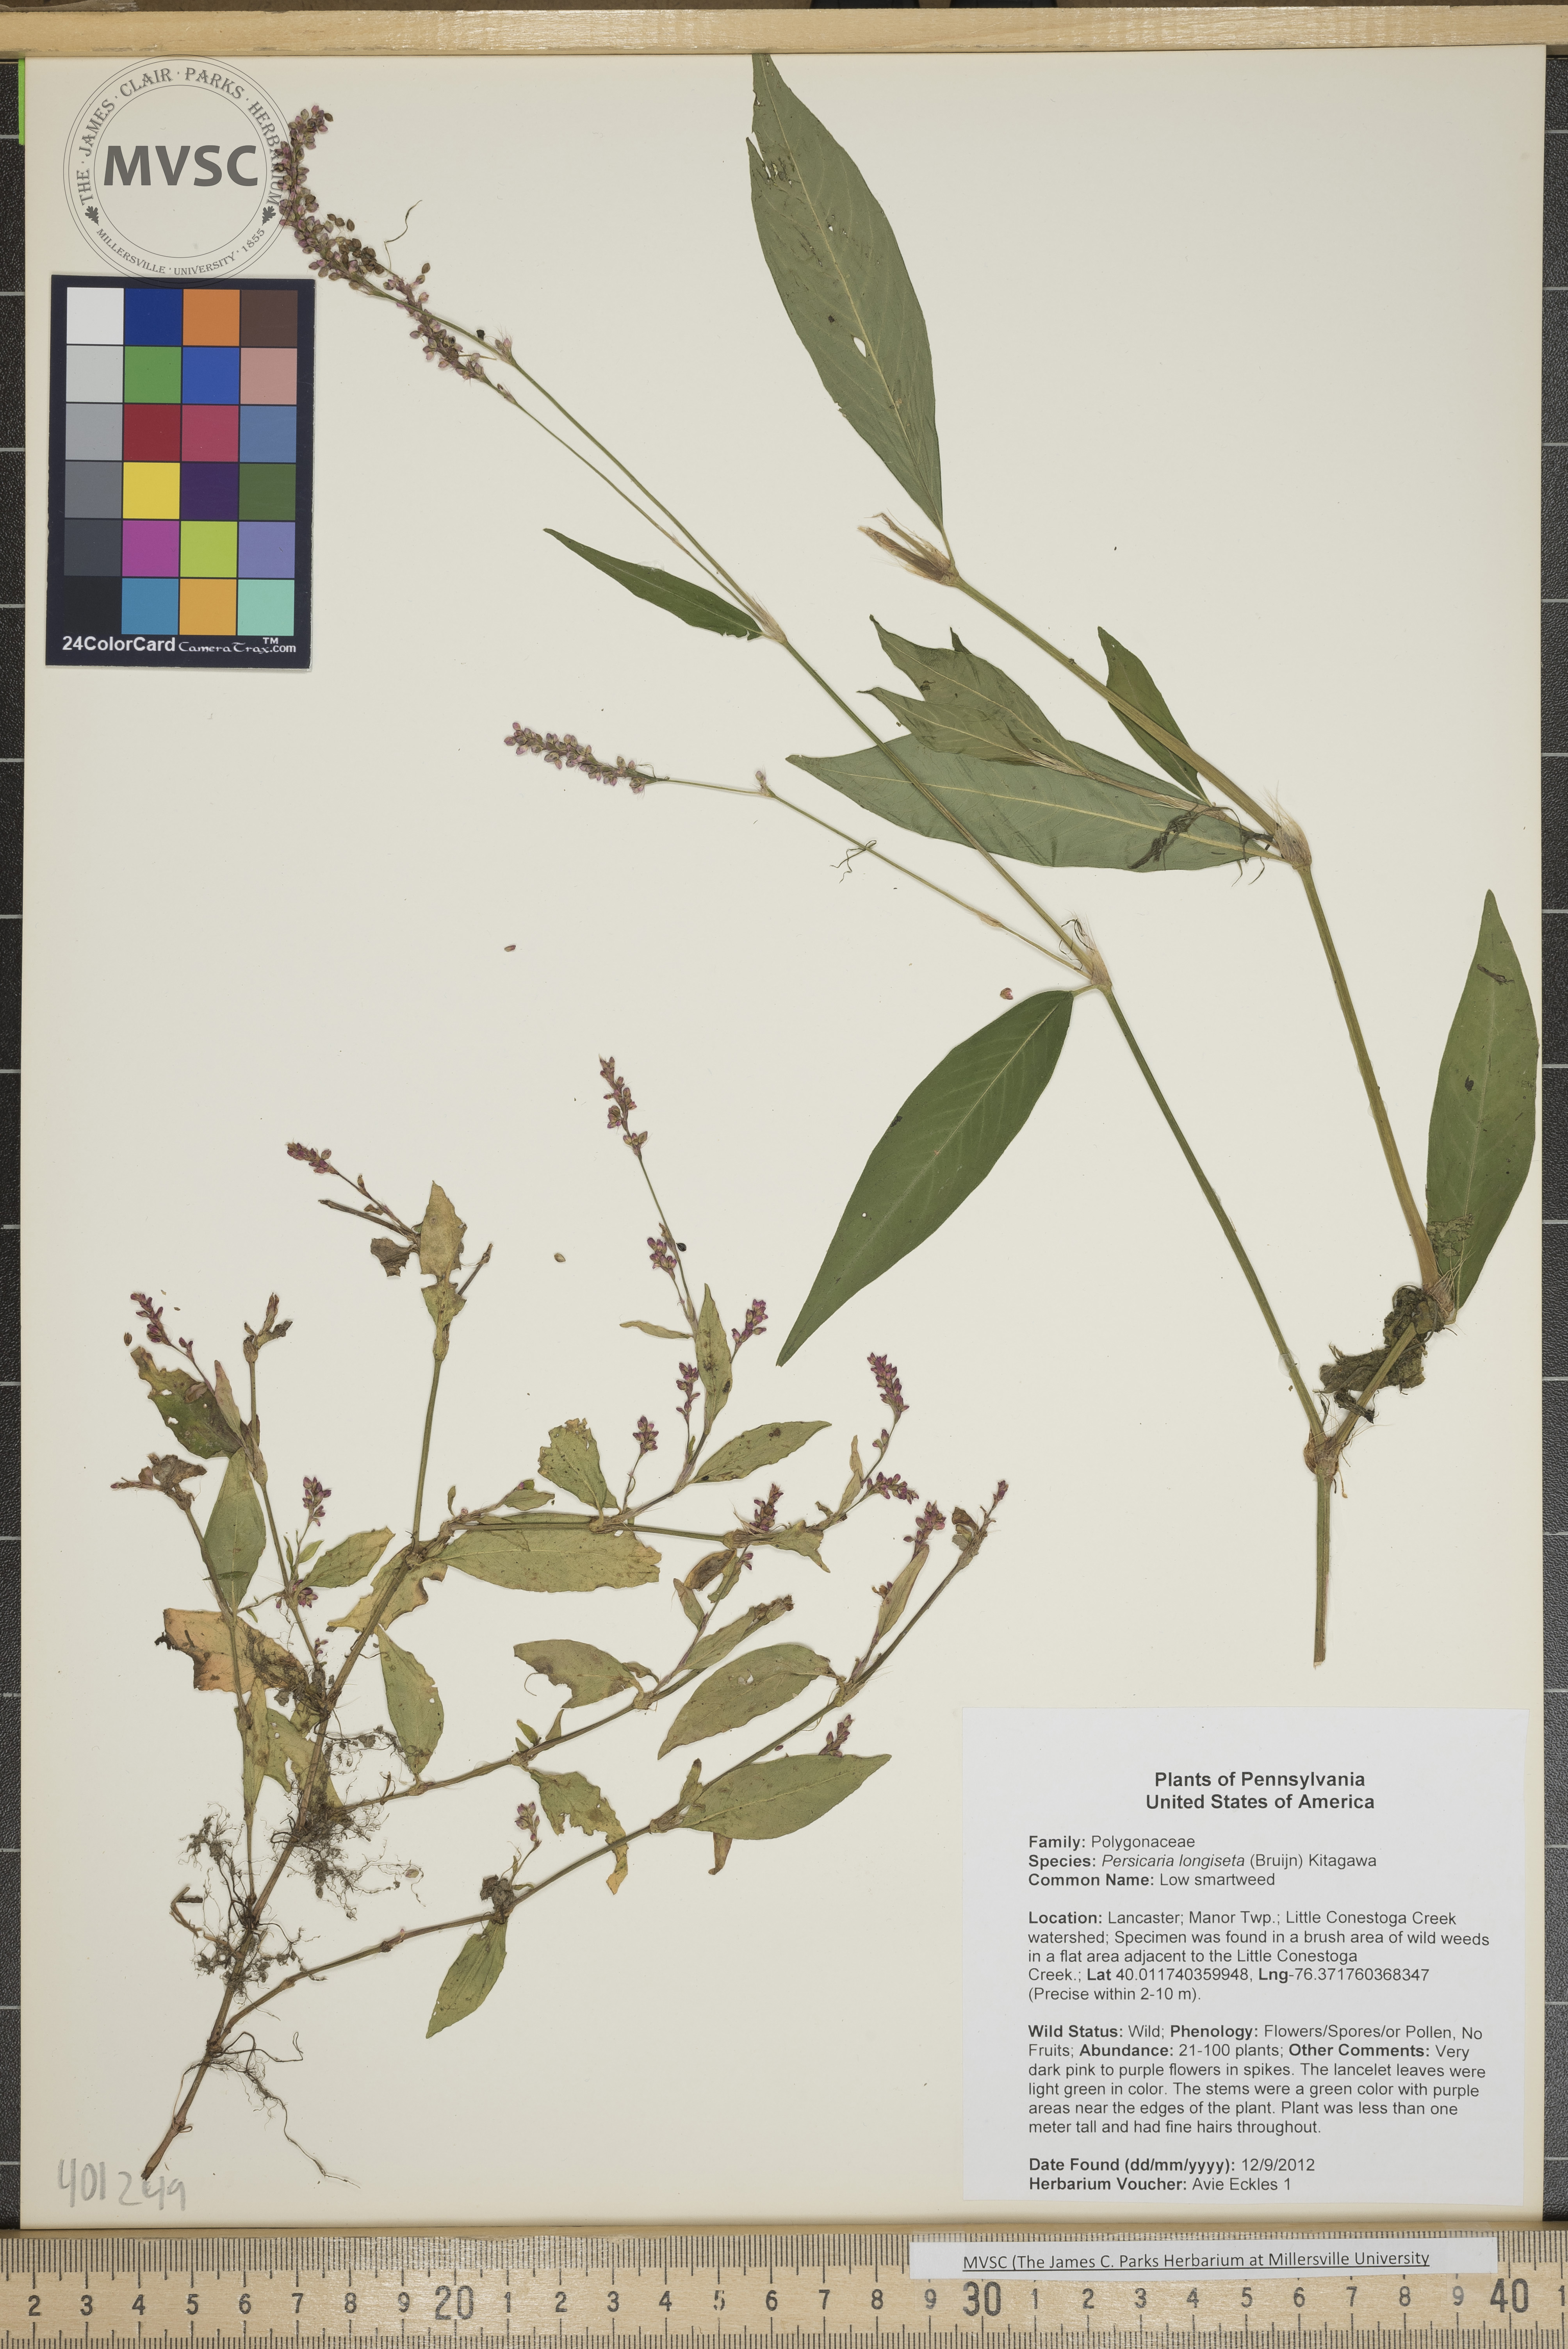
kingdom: Plantae
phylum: Tracheophyta
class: Magnoliopsida
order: Caryophyllales
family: Polygonaceae
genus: Persicaria
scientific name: Persicaria longiseta
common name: Low smartweed
